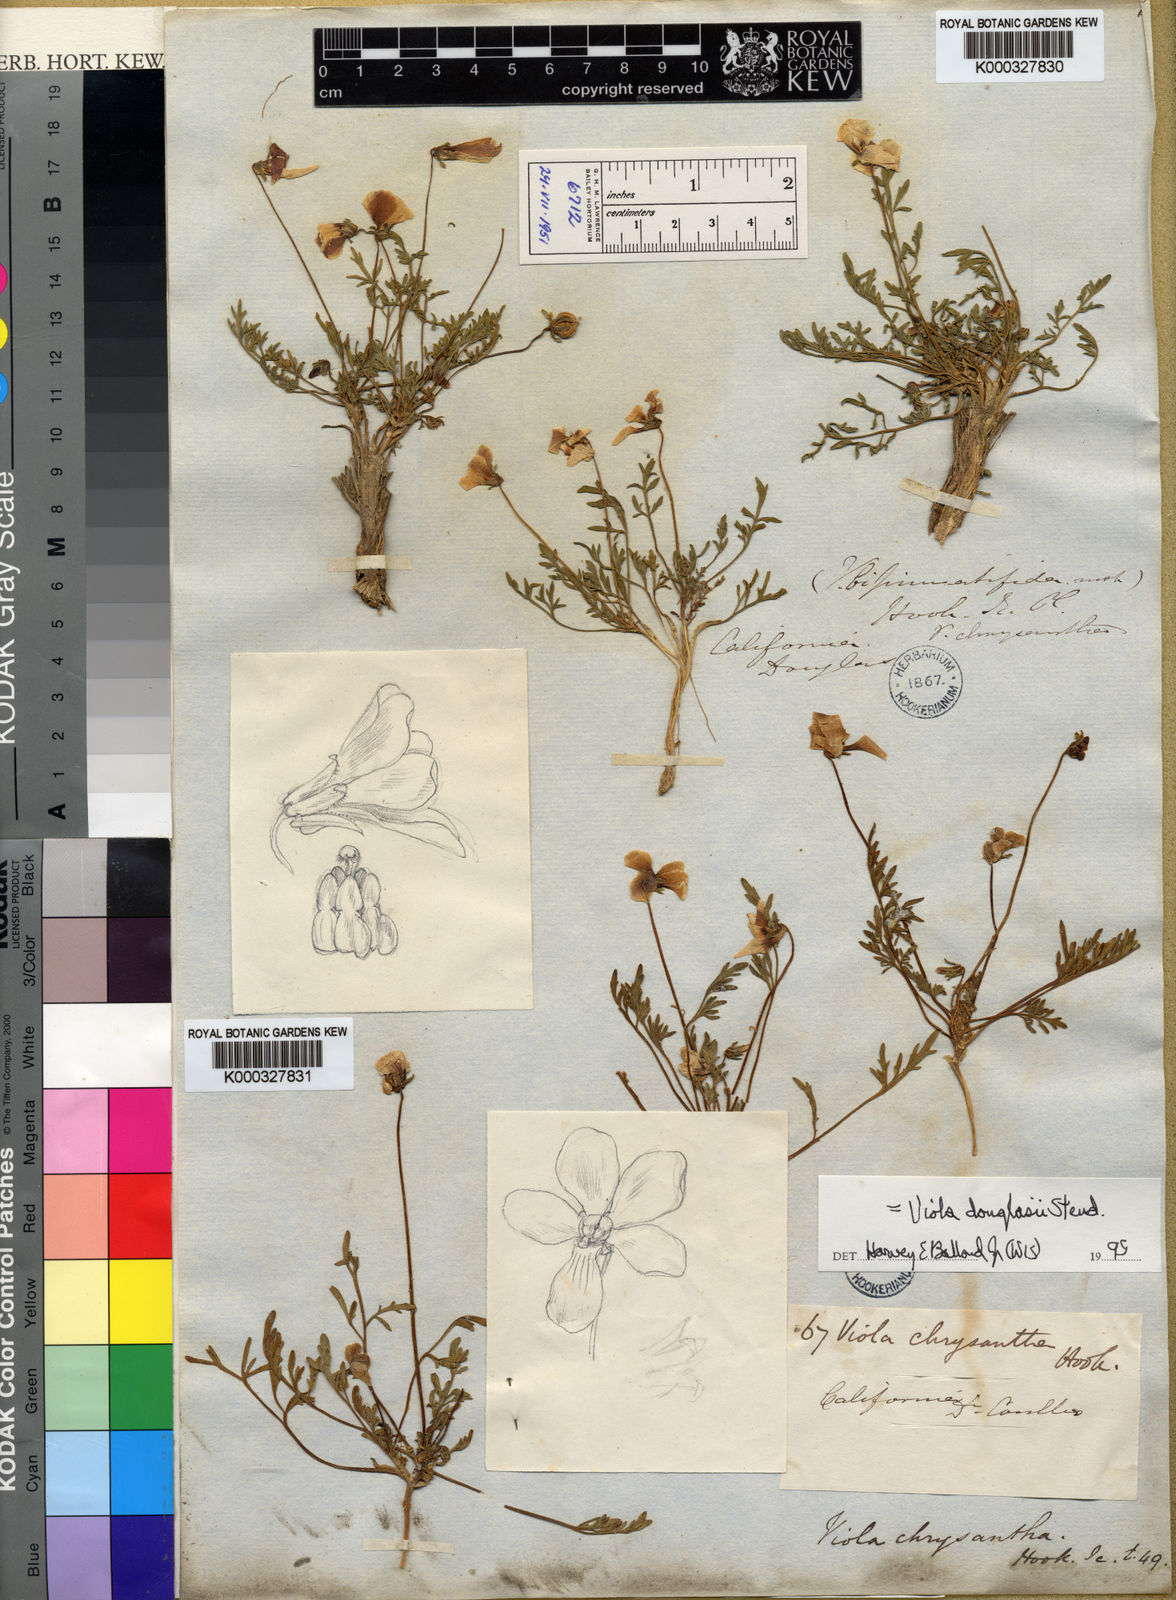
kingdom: Plantae
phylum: Tracheophyta
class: Magnoliopsida
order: Malpighiales
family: Violaceae
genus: Viola
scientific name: Viola douglasii
